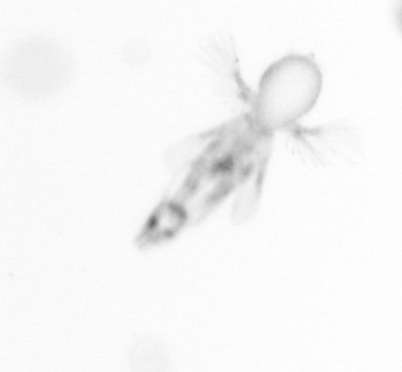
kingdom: Animalia
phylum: Arthropoda
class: Copepoda
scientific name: Copepoda
